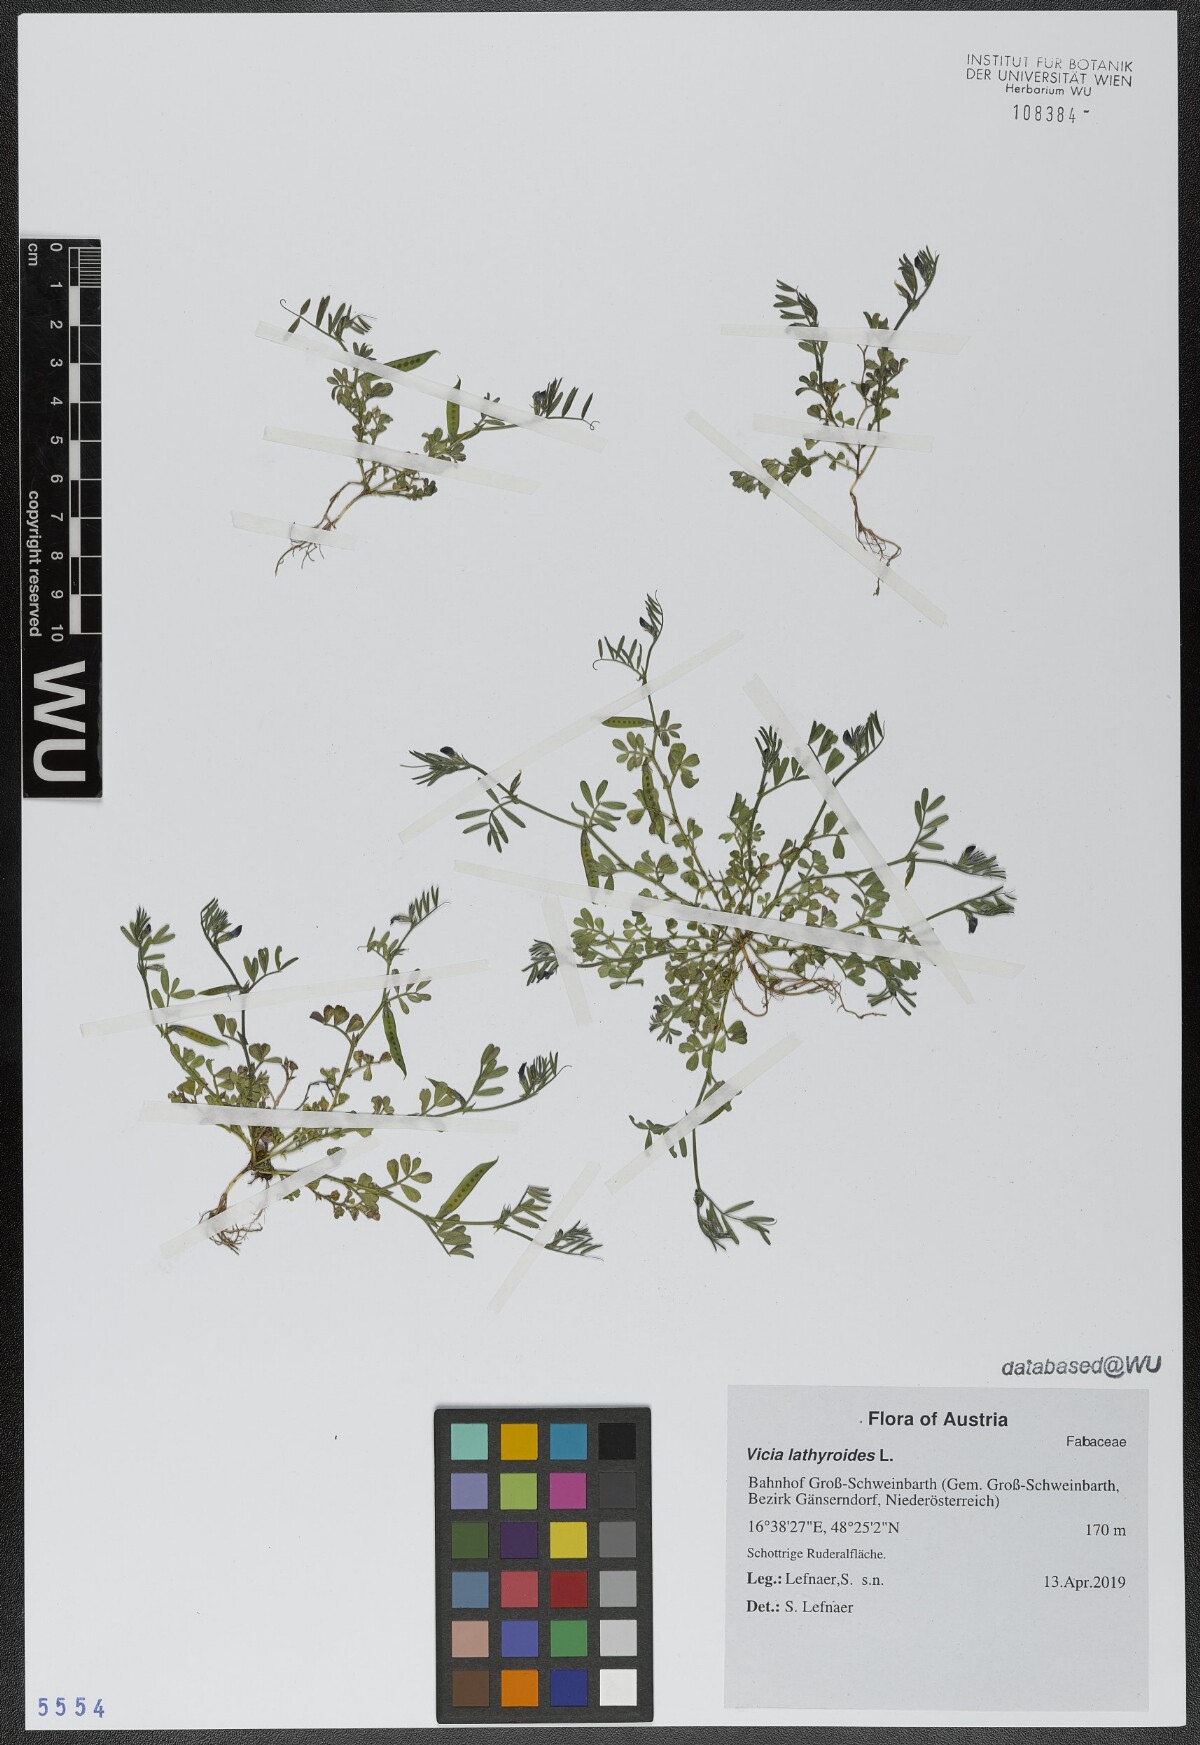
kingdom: Plantae
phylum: Tracheophyta
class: Magnoliopsida
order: Fabales
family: Fabaceae
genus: Vicia
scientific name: Vicia lathyroides
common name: Spring vetch
